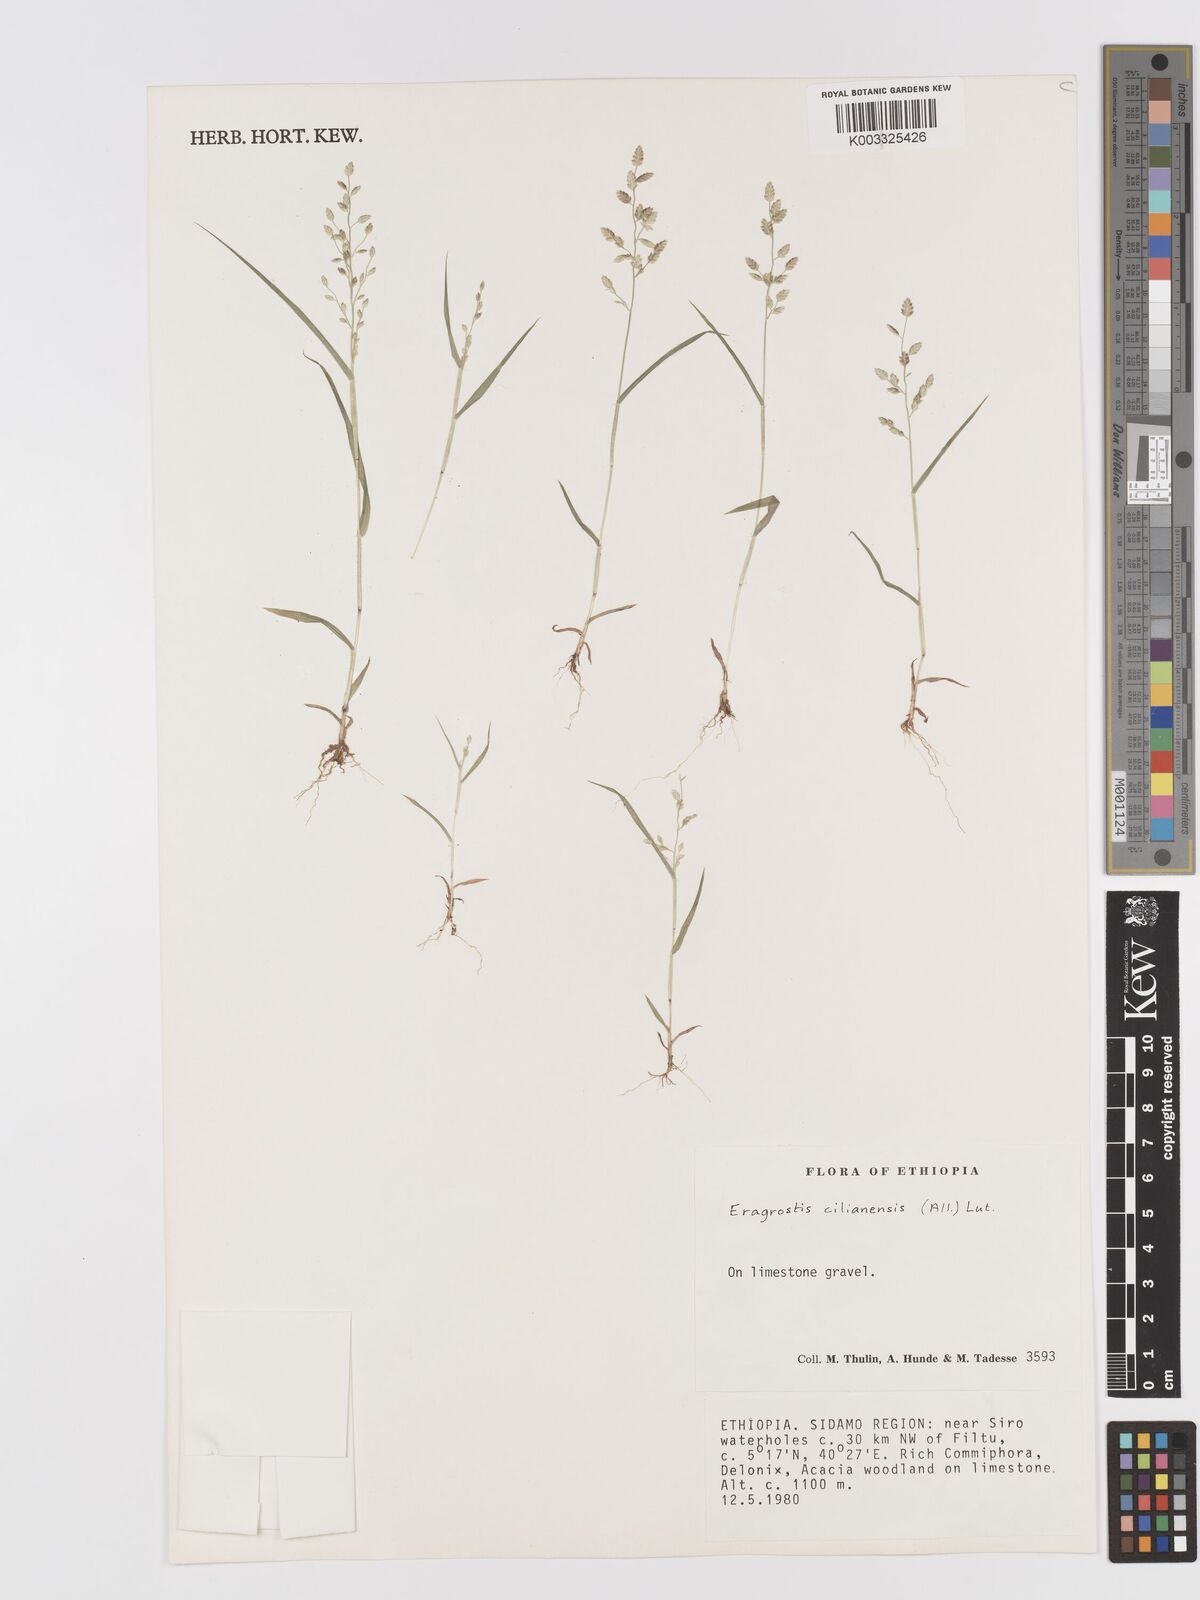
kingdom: Plantae
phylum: Tracheophyta
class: Liliopsida
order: Poales
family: Poaceae
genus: Eragrostis
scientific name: Eragrostis cilianensis
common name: Stinkgrass
